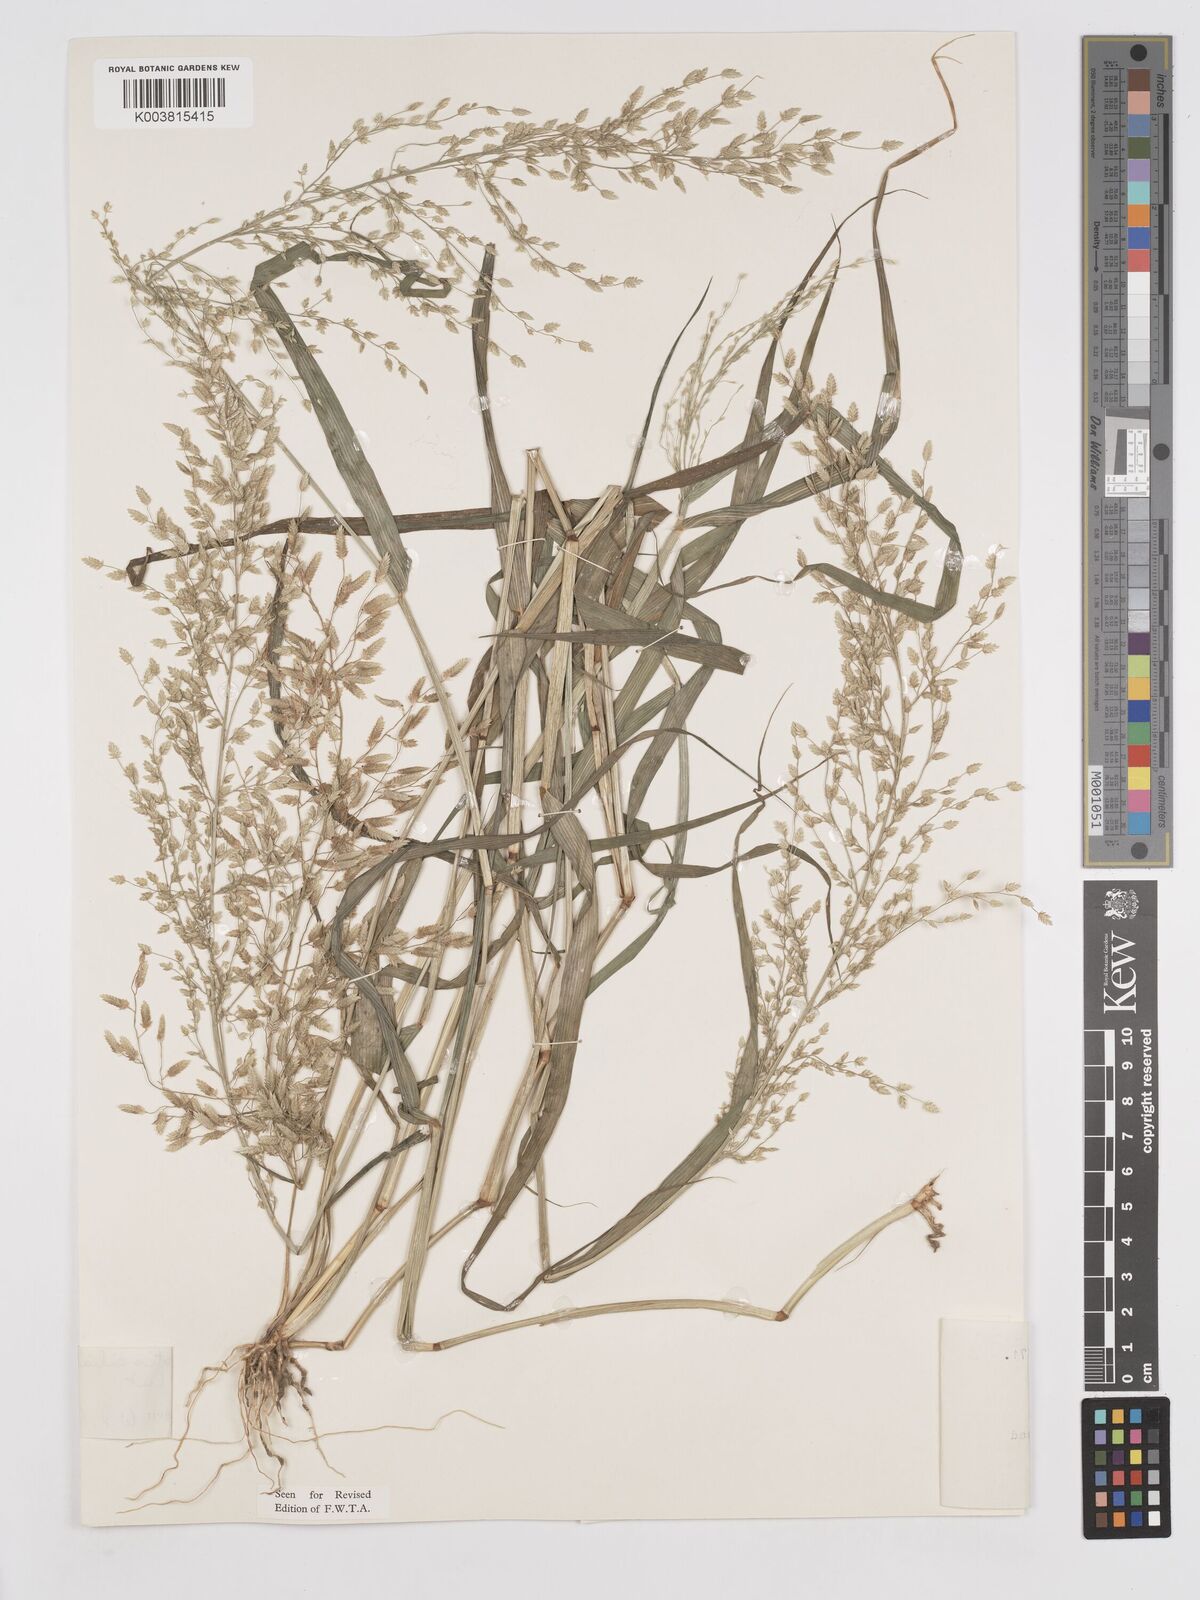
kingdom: Plantae
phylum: Tracheophyta
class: Liliopsida
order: Poales
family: Poaceae
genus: Eragrostis
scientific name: Eragrostis cilianensis
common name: Stinkgrass
